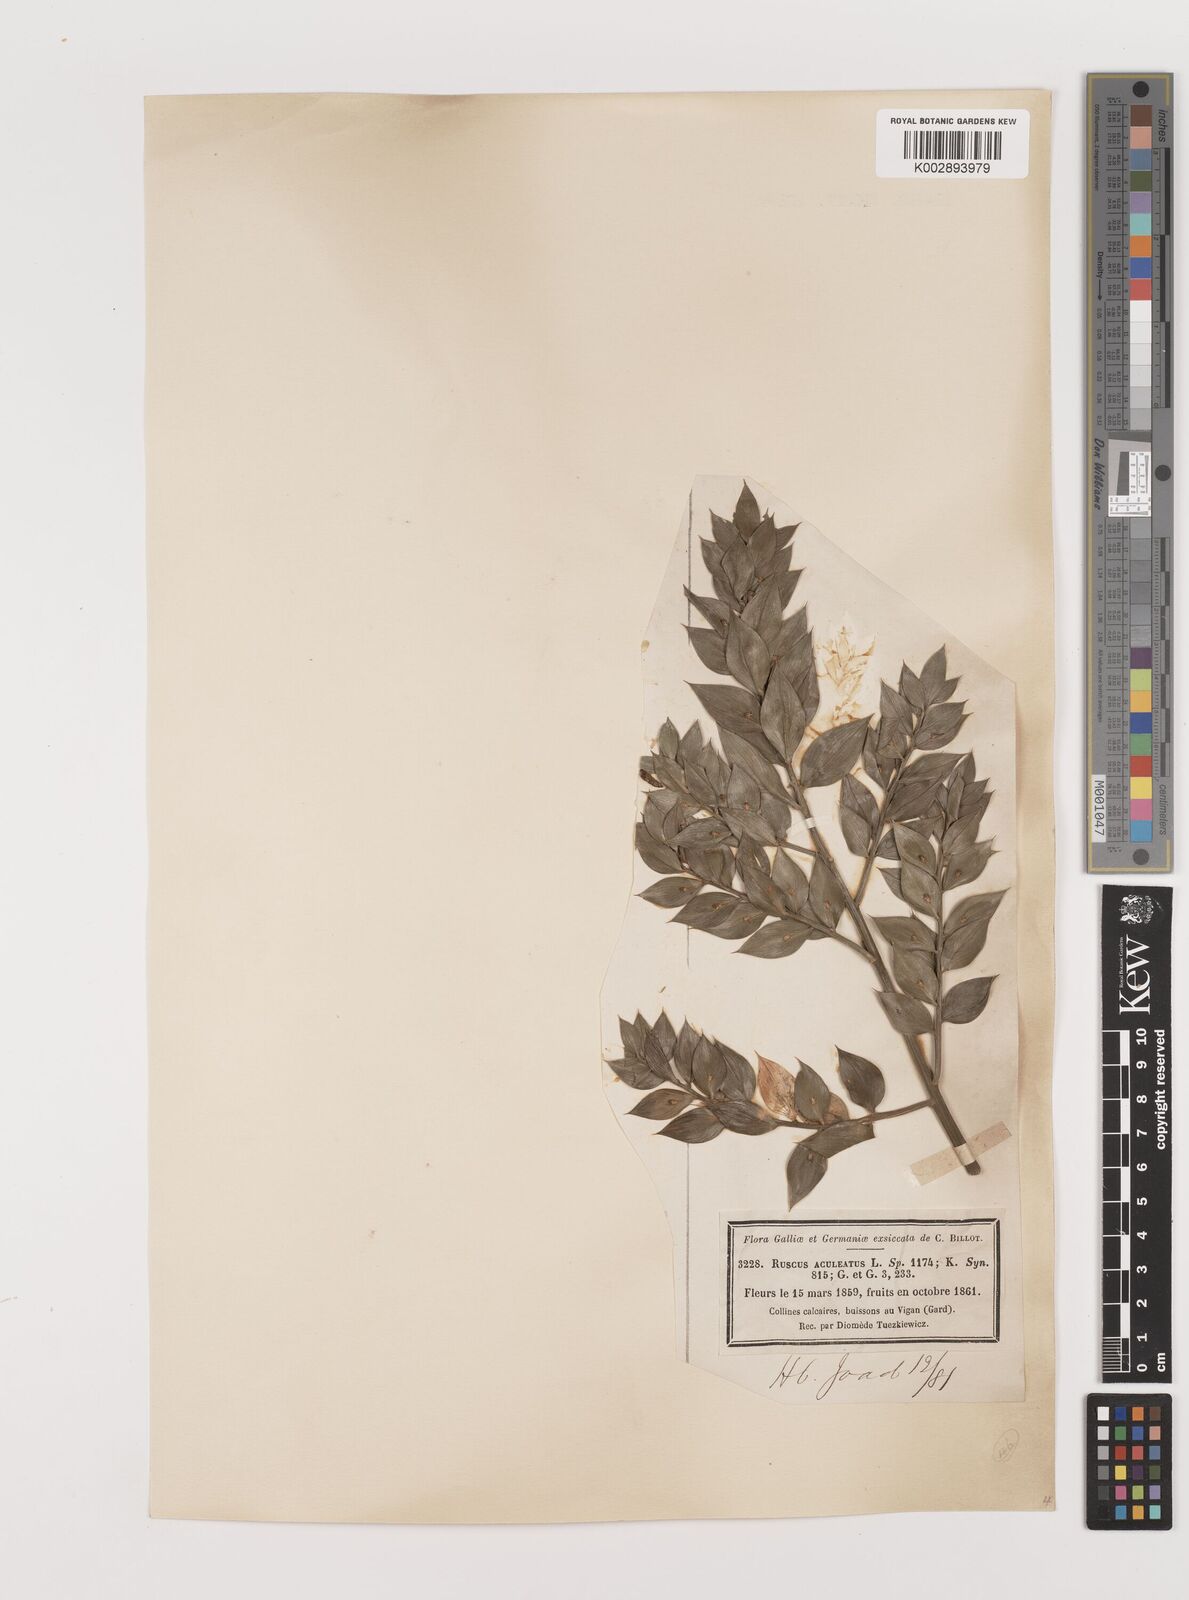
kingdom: Plantae
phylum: Tracheophyta
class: Liliopsida
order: Asparagales
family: Asparagaceae
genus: Ruscus
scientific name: Ruscus aculeatus
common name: Butcher's-broom
